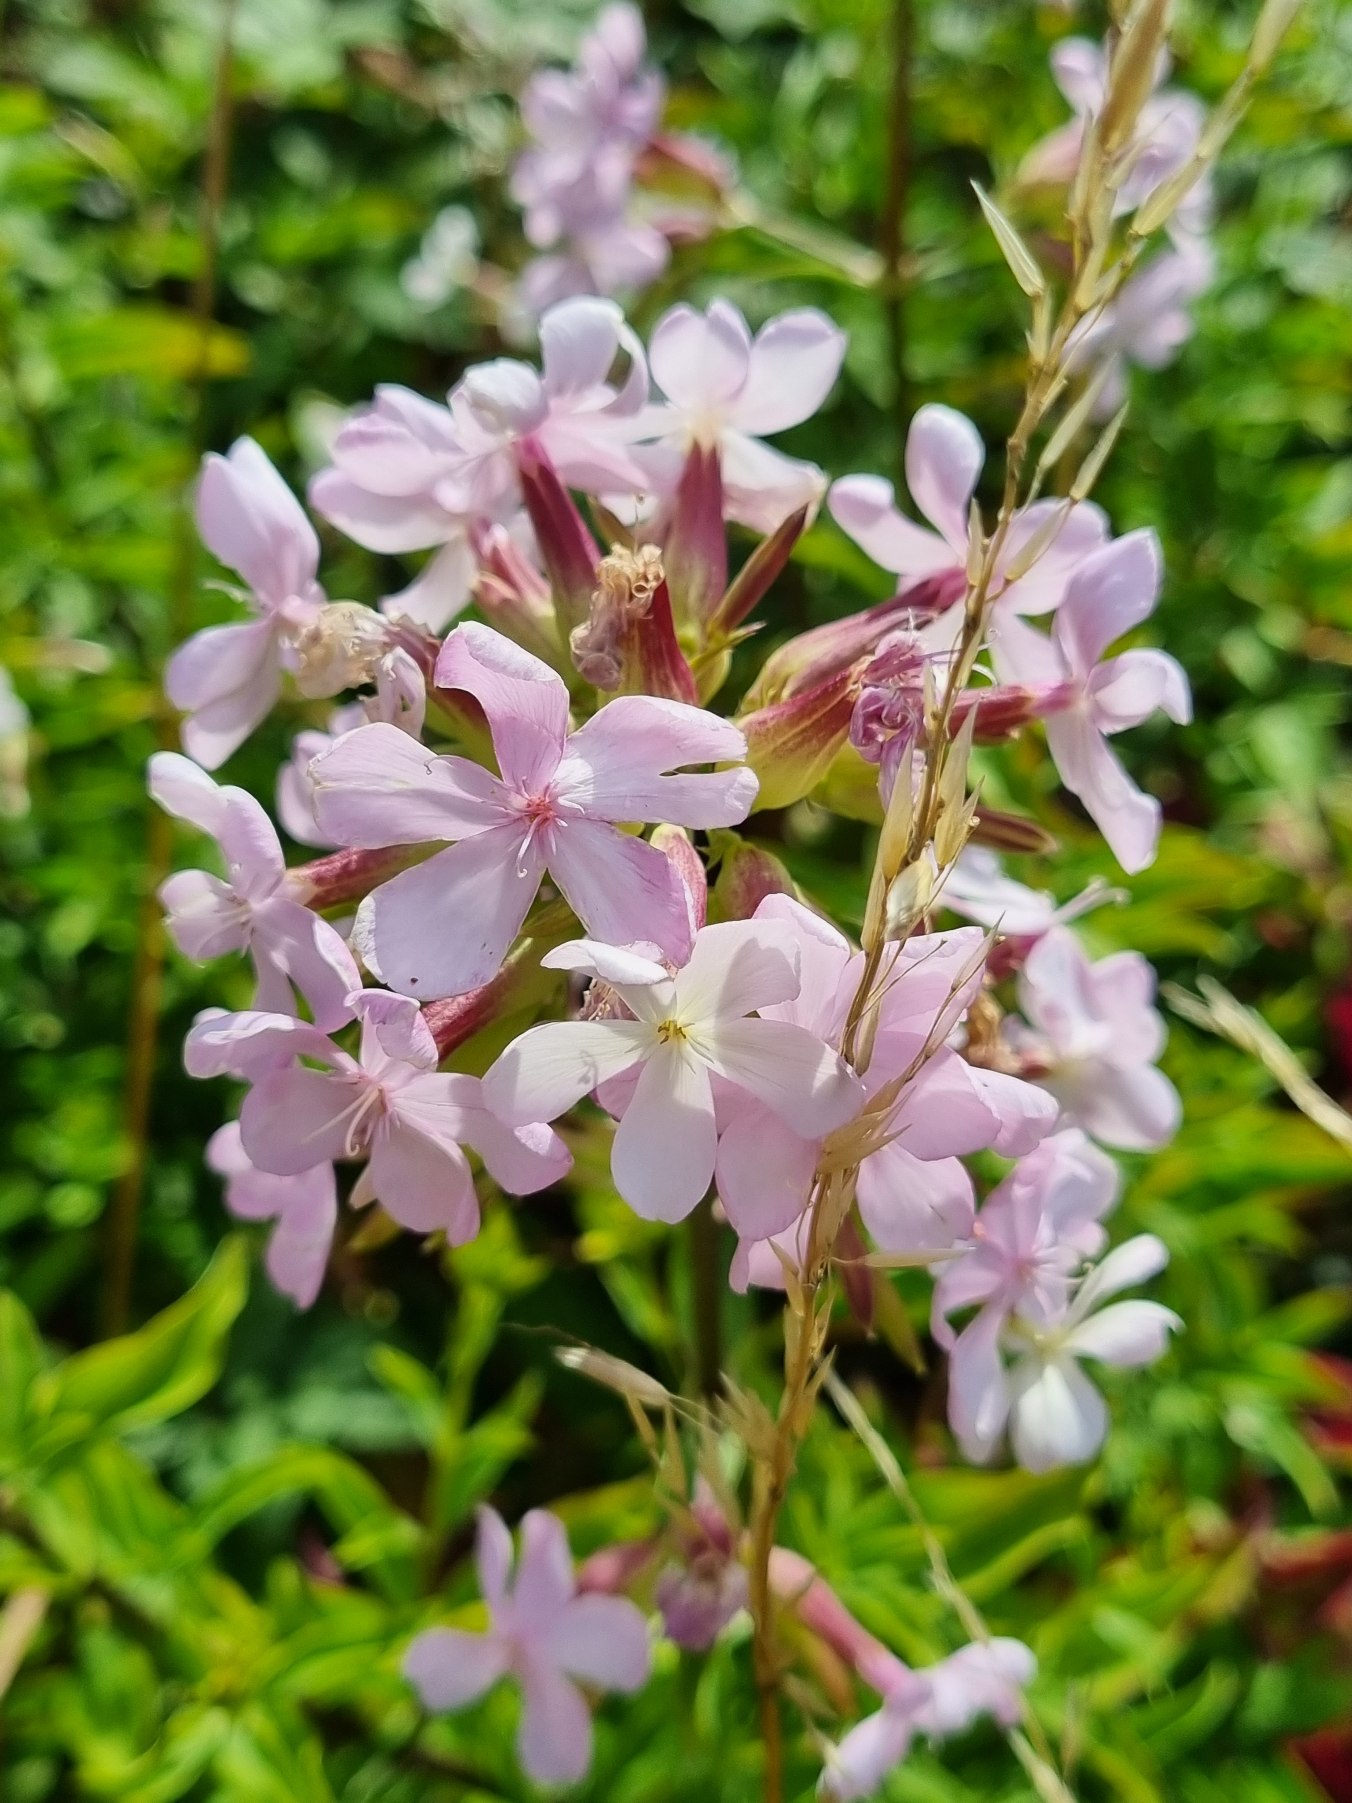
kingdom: Plantae
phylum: Tracheophyta
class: Magnoliopsida
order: Caryophyllales
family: Caryophyllaceae
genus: Saponaria
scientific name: Saponaria officinalis
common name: Sæbeurt
